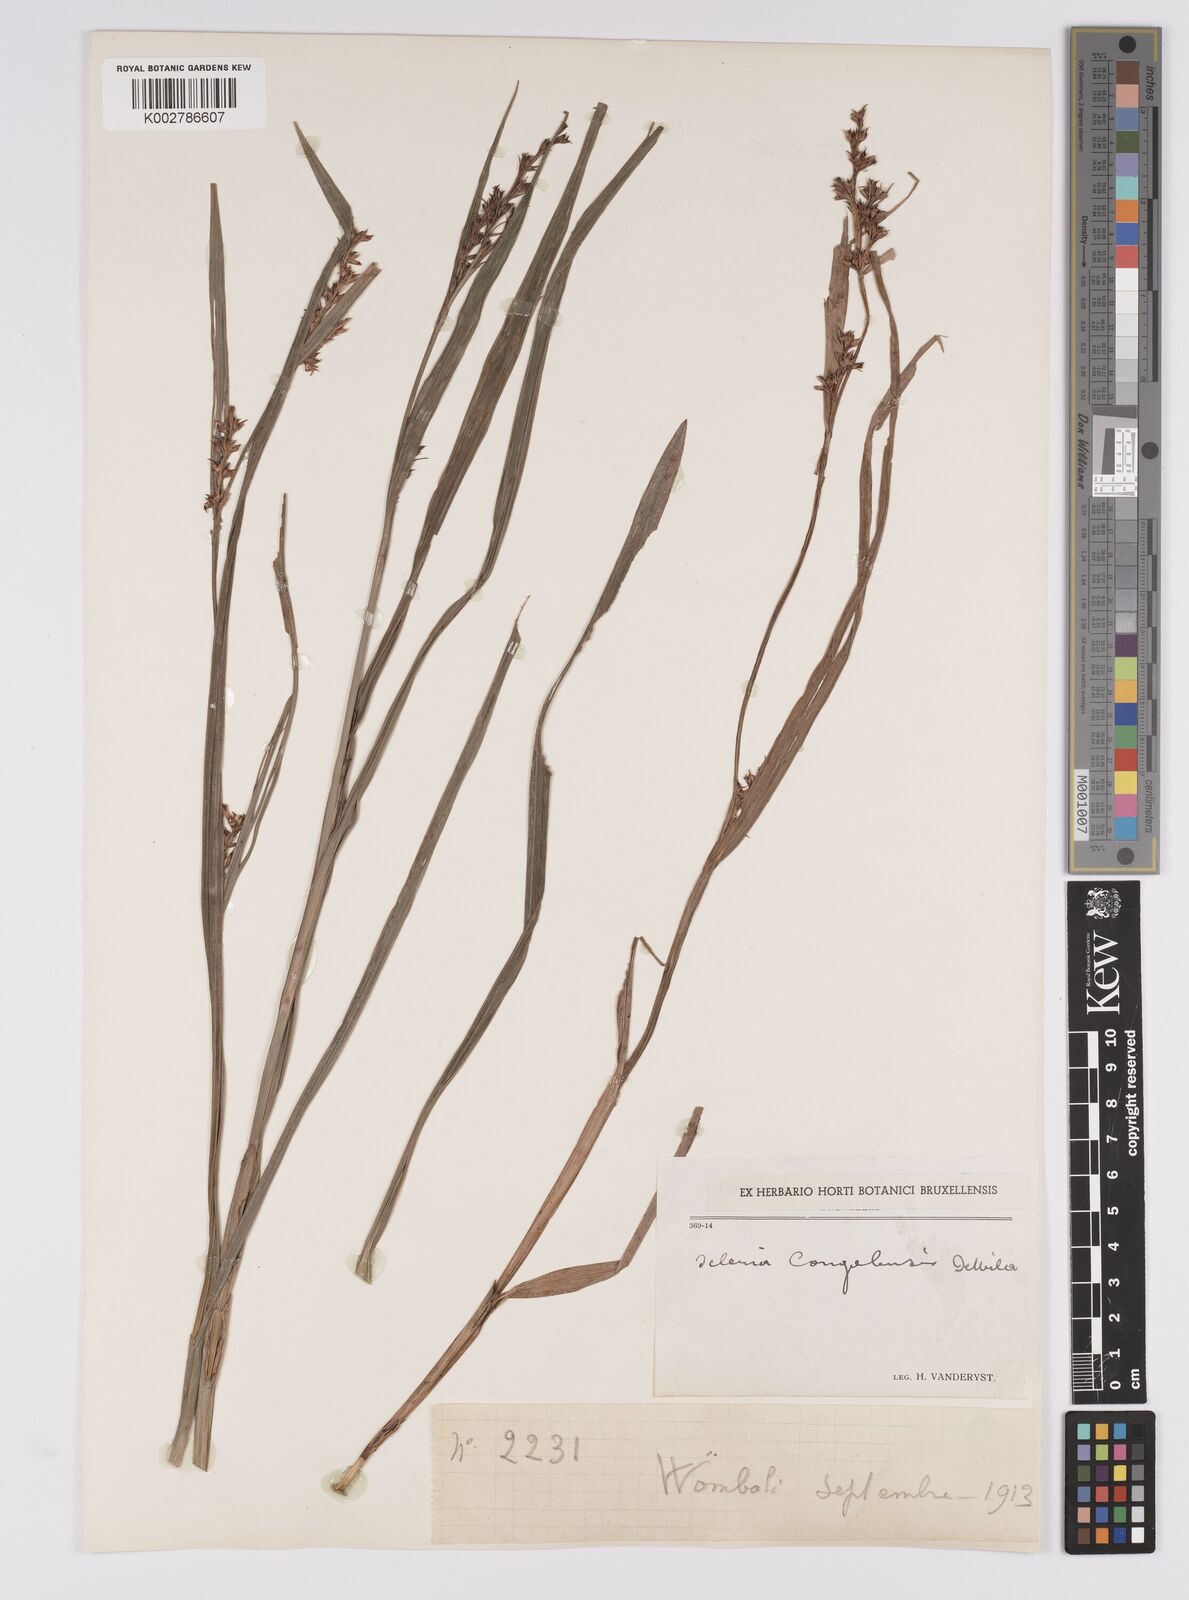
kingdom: Plantae
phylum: Tracheophyta
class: Liliopsida
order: Poales
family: Cyperaceae
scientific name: Cyperaceae
